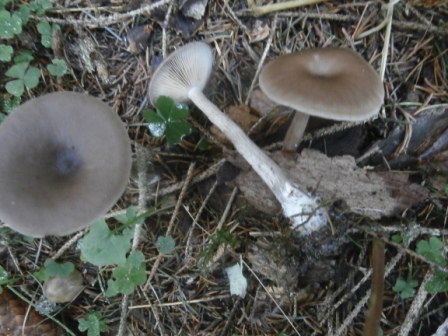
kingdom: Fungi
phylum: Basidiomycota
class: Agaricomycetes
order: Agaricales
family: Pseudoclitocybaceae
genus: Pseudoclitocybe
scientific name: Pseudoclitocybe cyathiformis
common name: almindelig bægertragthat
